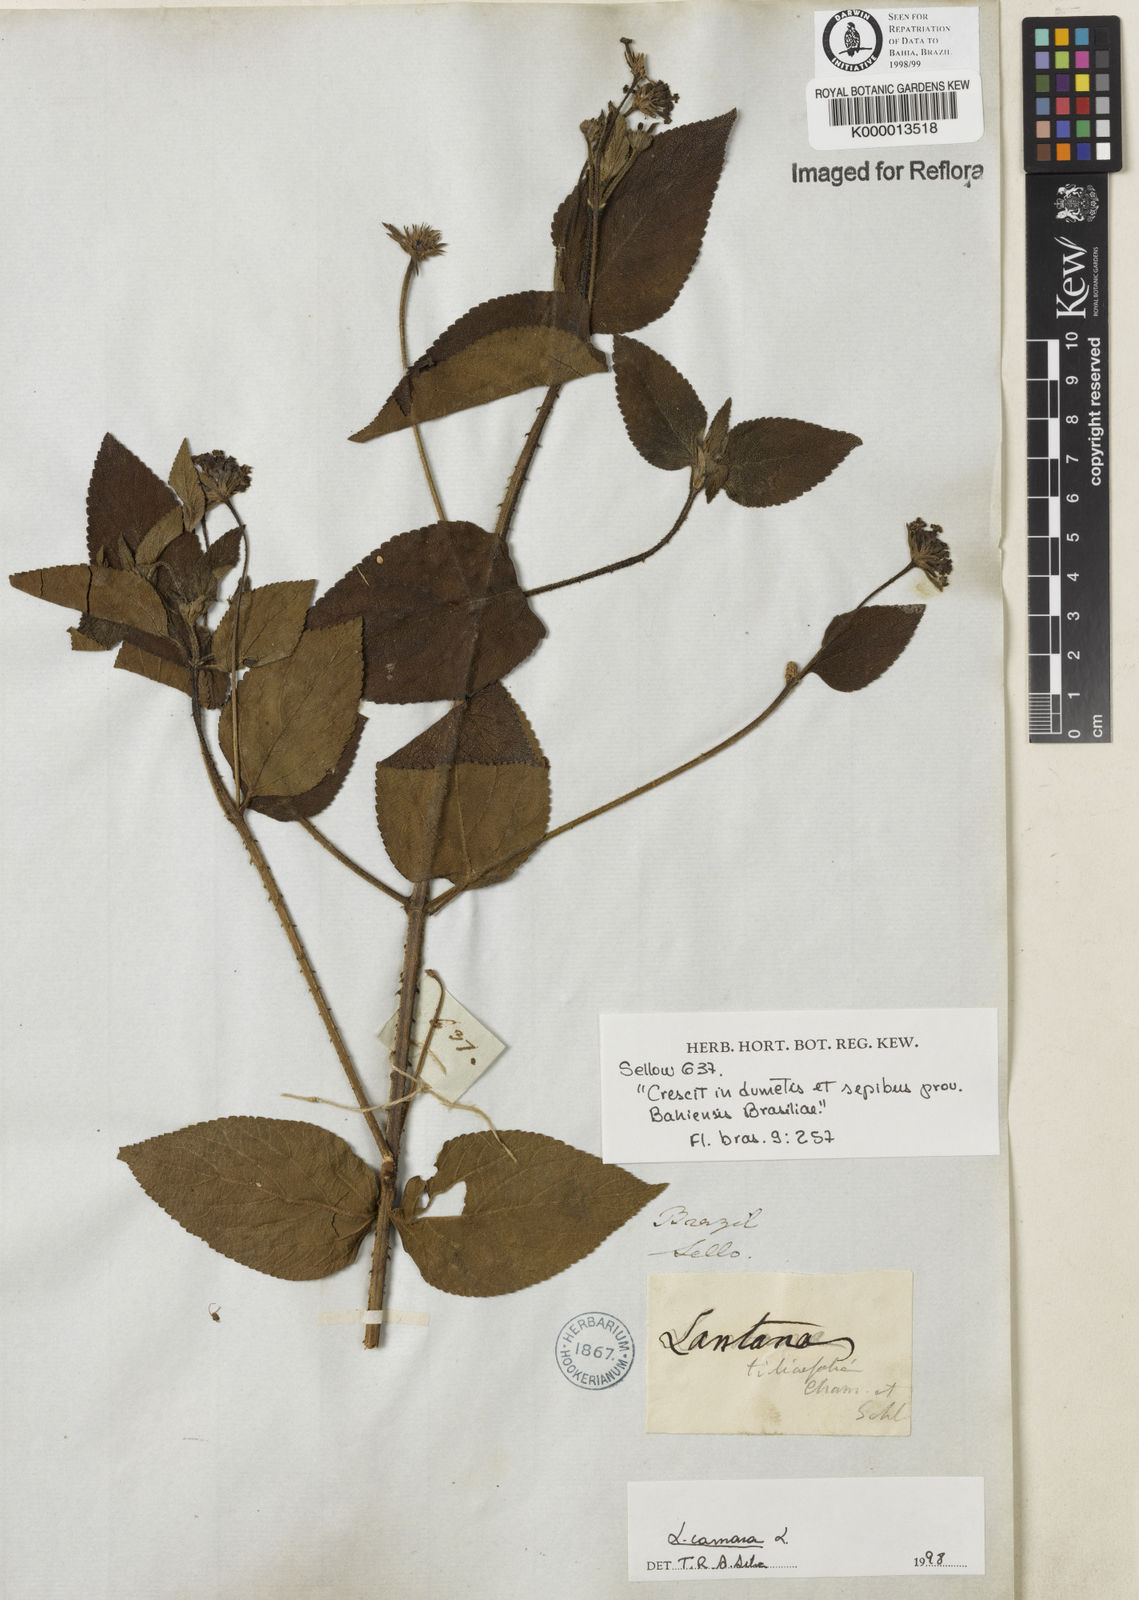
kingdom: Plantae
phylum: Tracheophyta
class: Magnoliopsida
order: Lamiales
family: Verbenaceae
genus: Lantana
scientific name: Lantana camara
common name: Lantana
